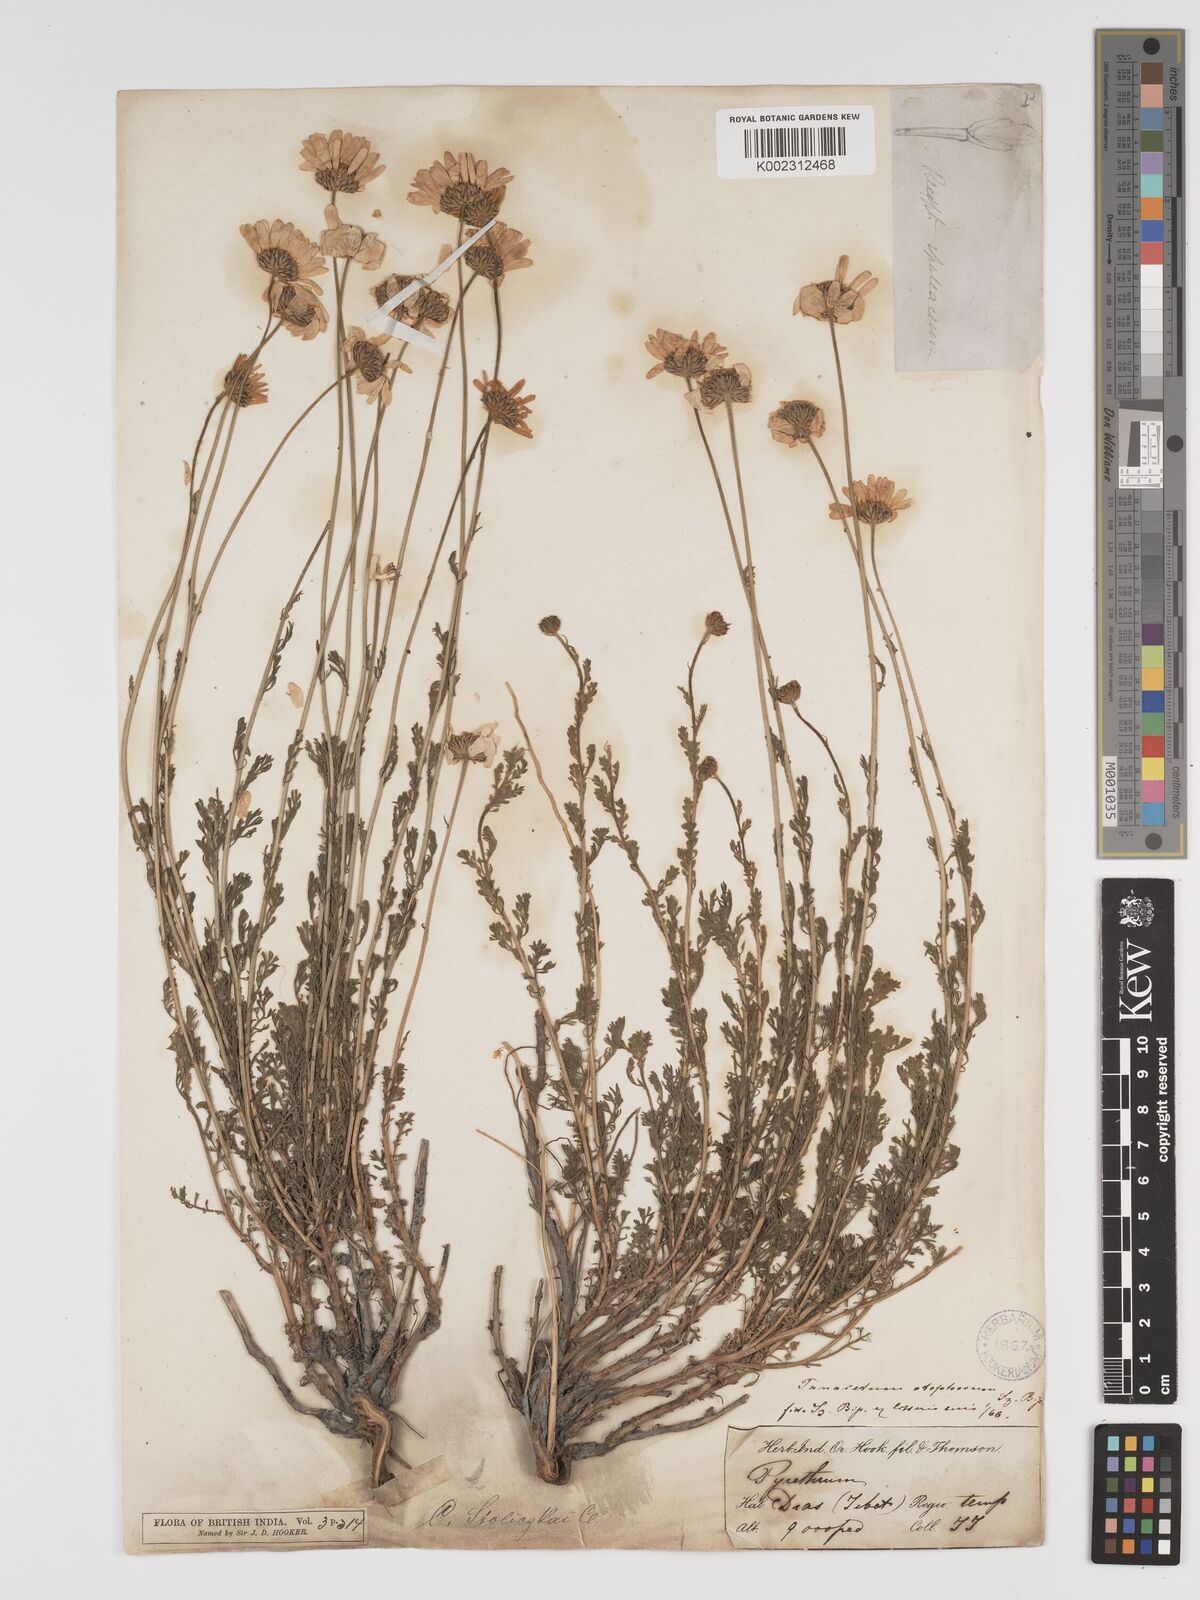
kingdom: Plantae
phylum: Tracheophyta
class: Magnoliopsida
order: Asterales
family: Asteraceae
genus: Tanacetum
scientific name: Tanacetum stoliczkae
